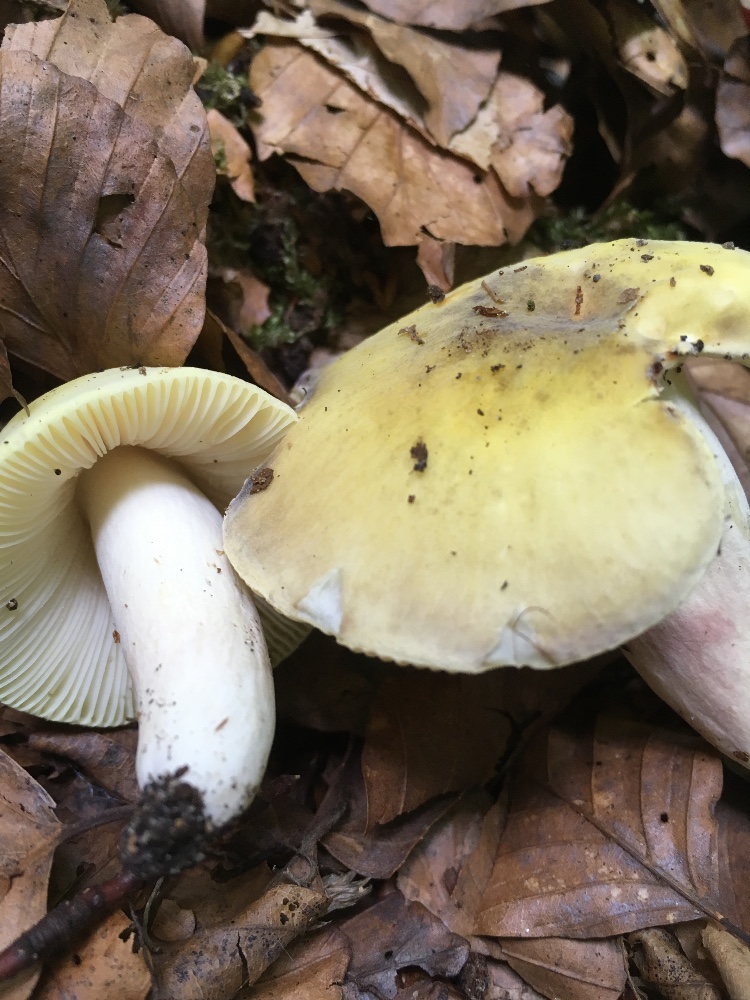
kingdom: Fungi
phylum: Basidiomycota
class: Agaricomycetes
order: Russulales
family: Russulaceae
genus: Russula
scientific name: Russula violeipes
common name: ferskengul skørhat
